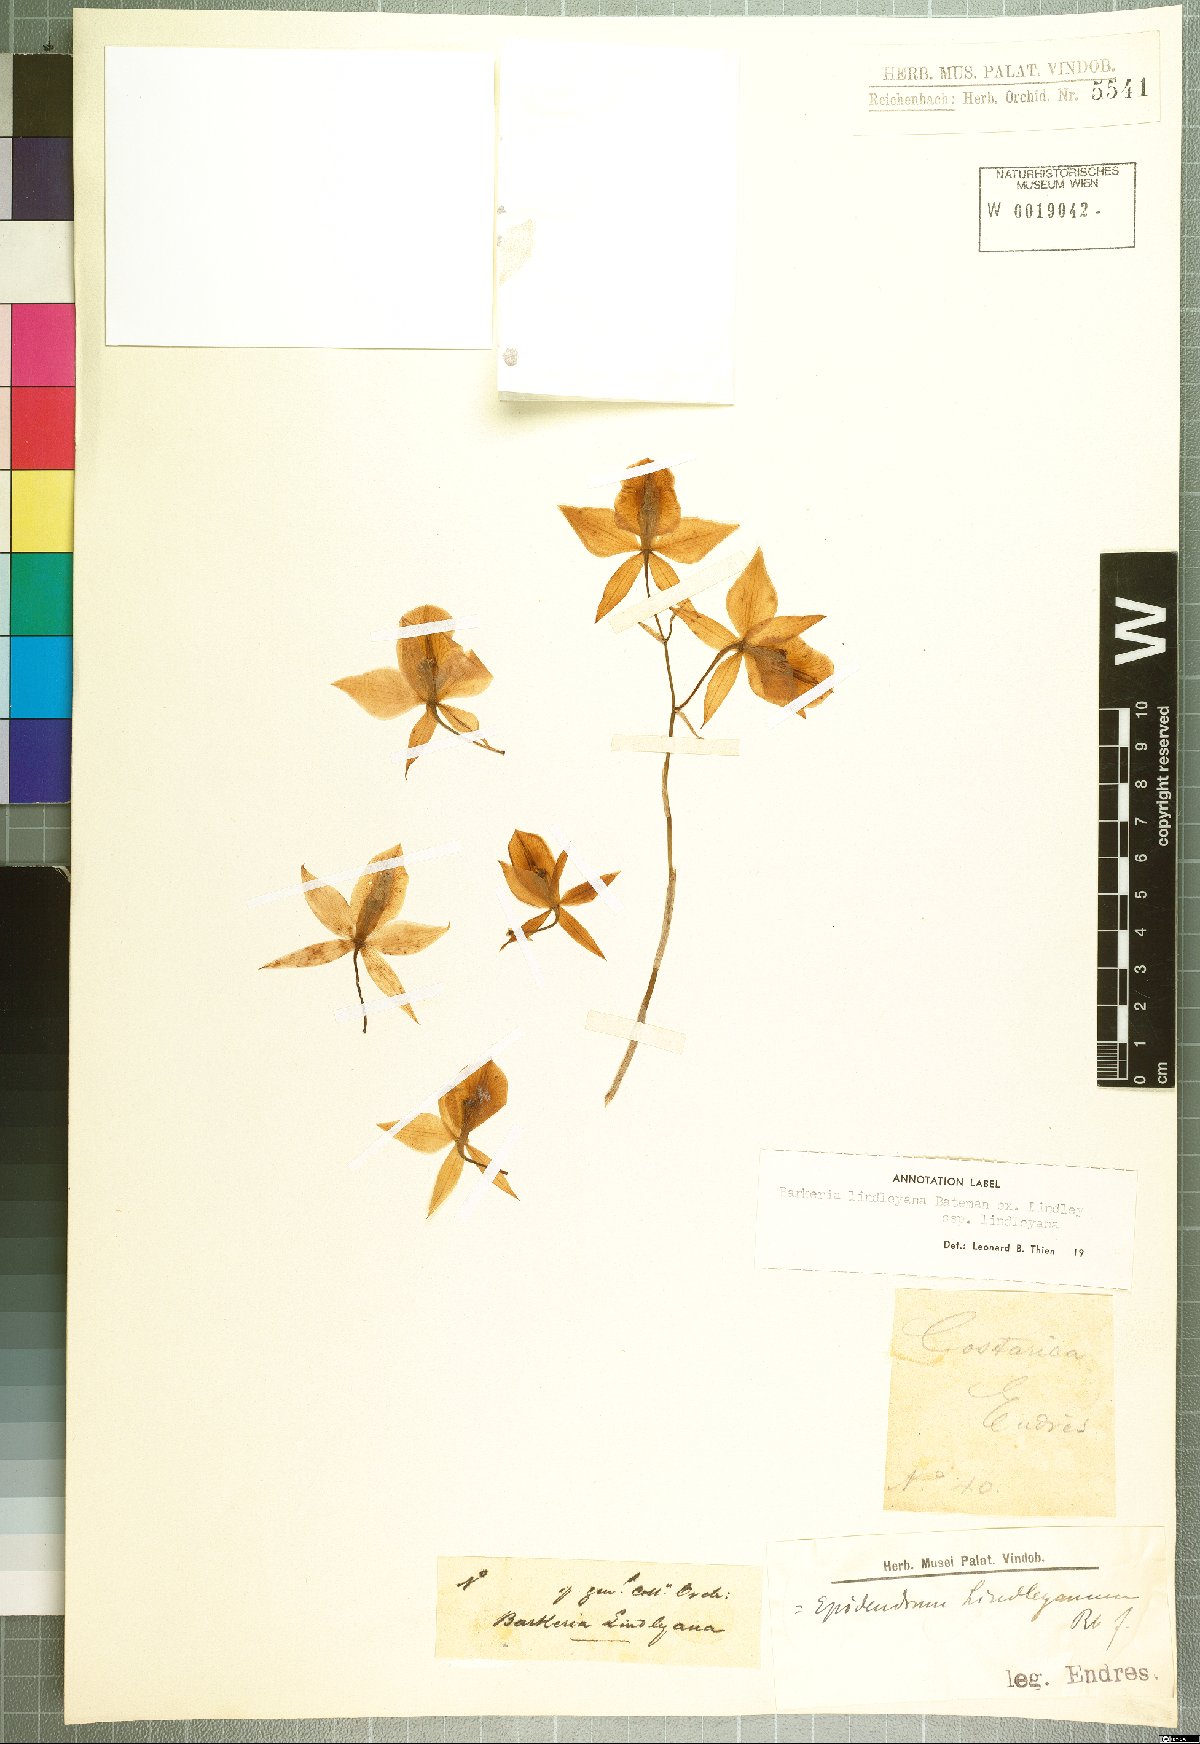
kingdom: Plantae
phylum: Tracheophyta
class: Liliopsida
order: Asparagales
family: Orchidaceae
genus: Barkeria
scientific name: Barkeria lindleyana
